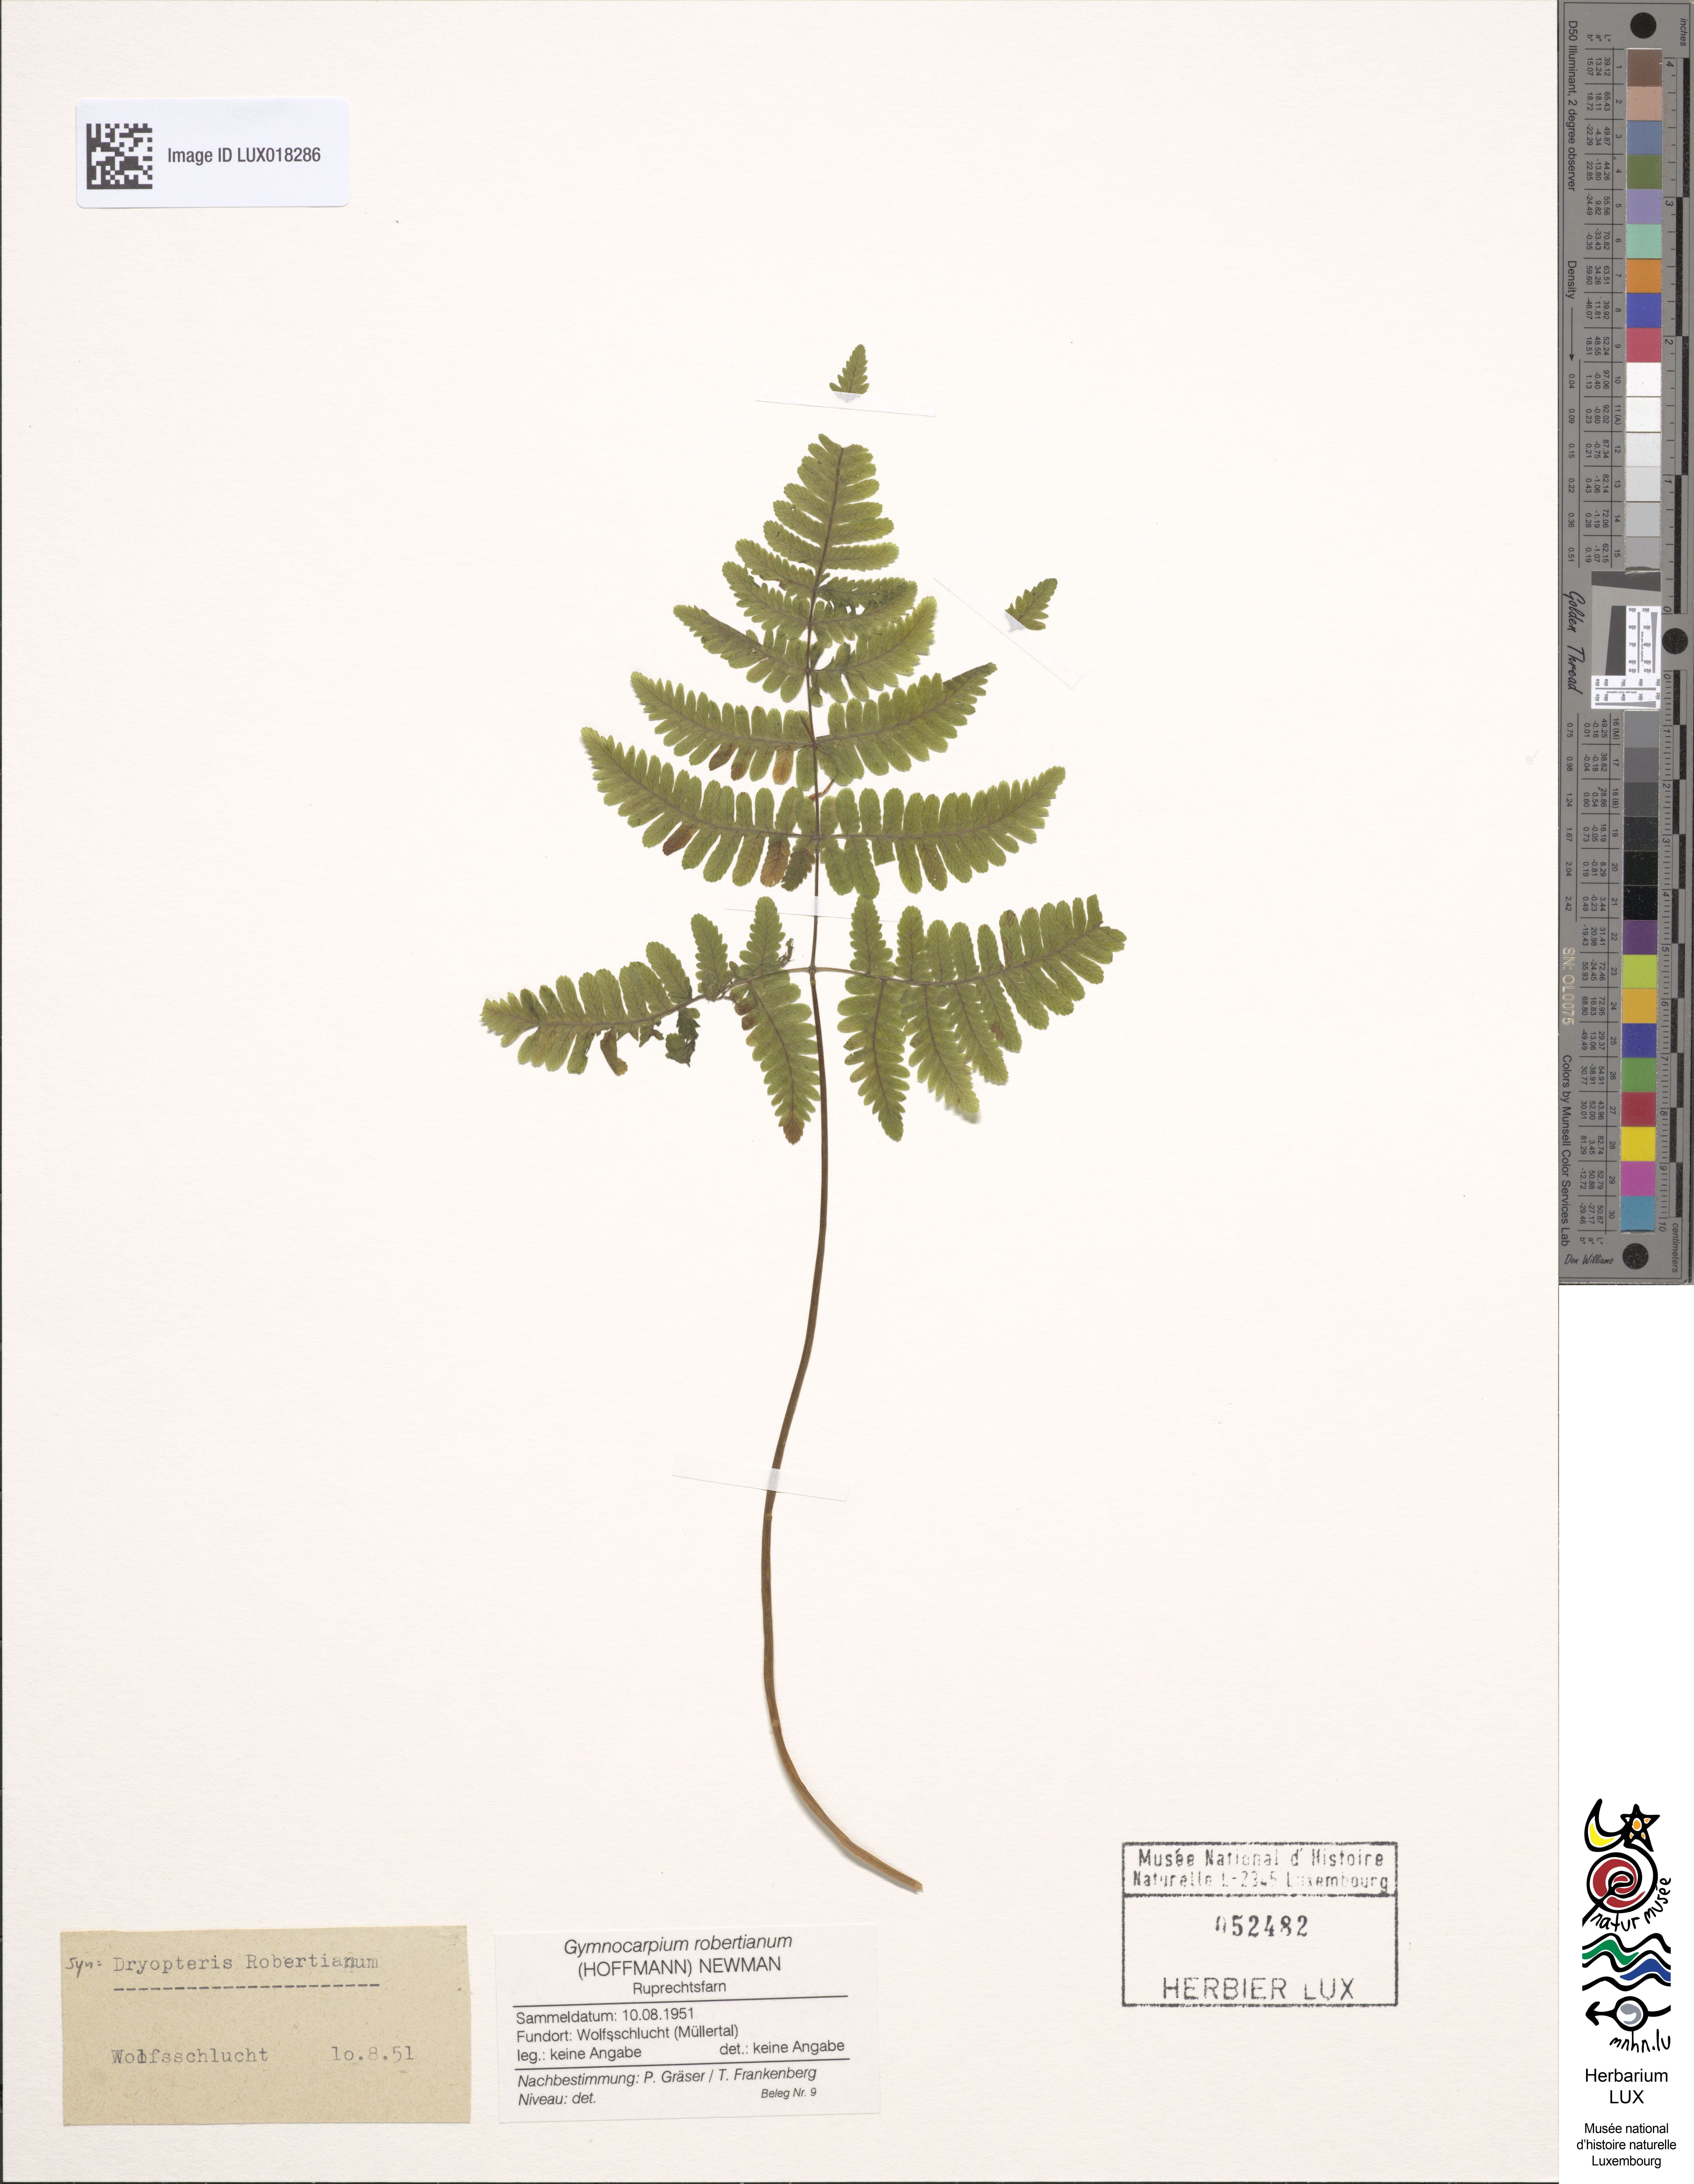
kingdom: Plantae
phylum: Tracheophyta
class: Polypodiopsida
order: Polypodiales
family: Cystopteridaceae
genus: Gymnocarpium
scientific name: Gymnocarpium robertianum
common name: Limestone fern
